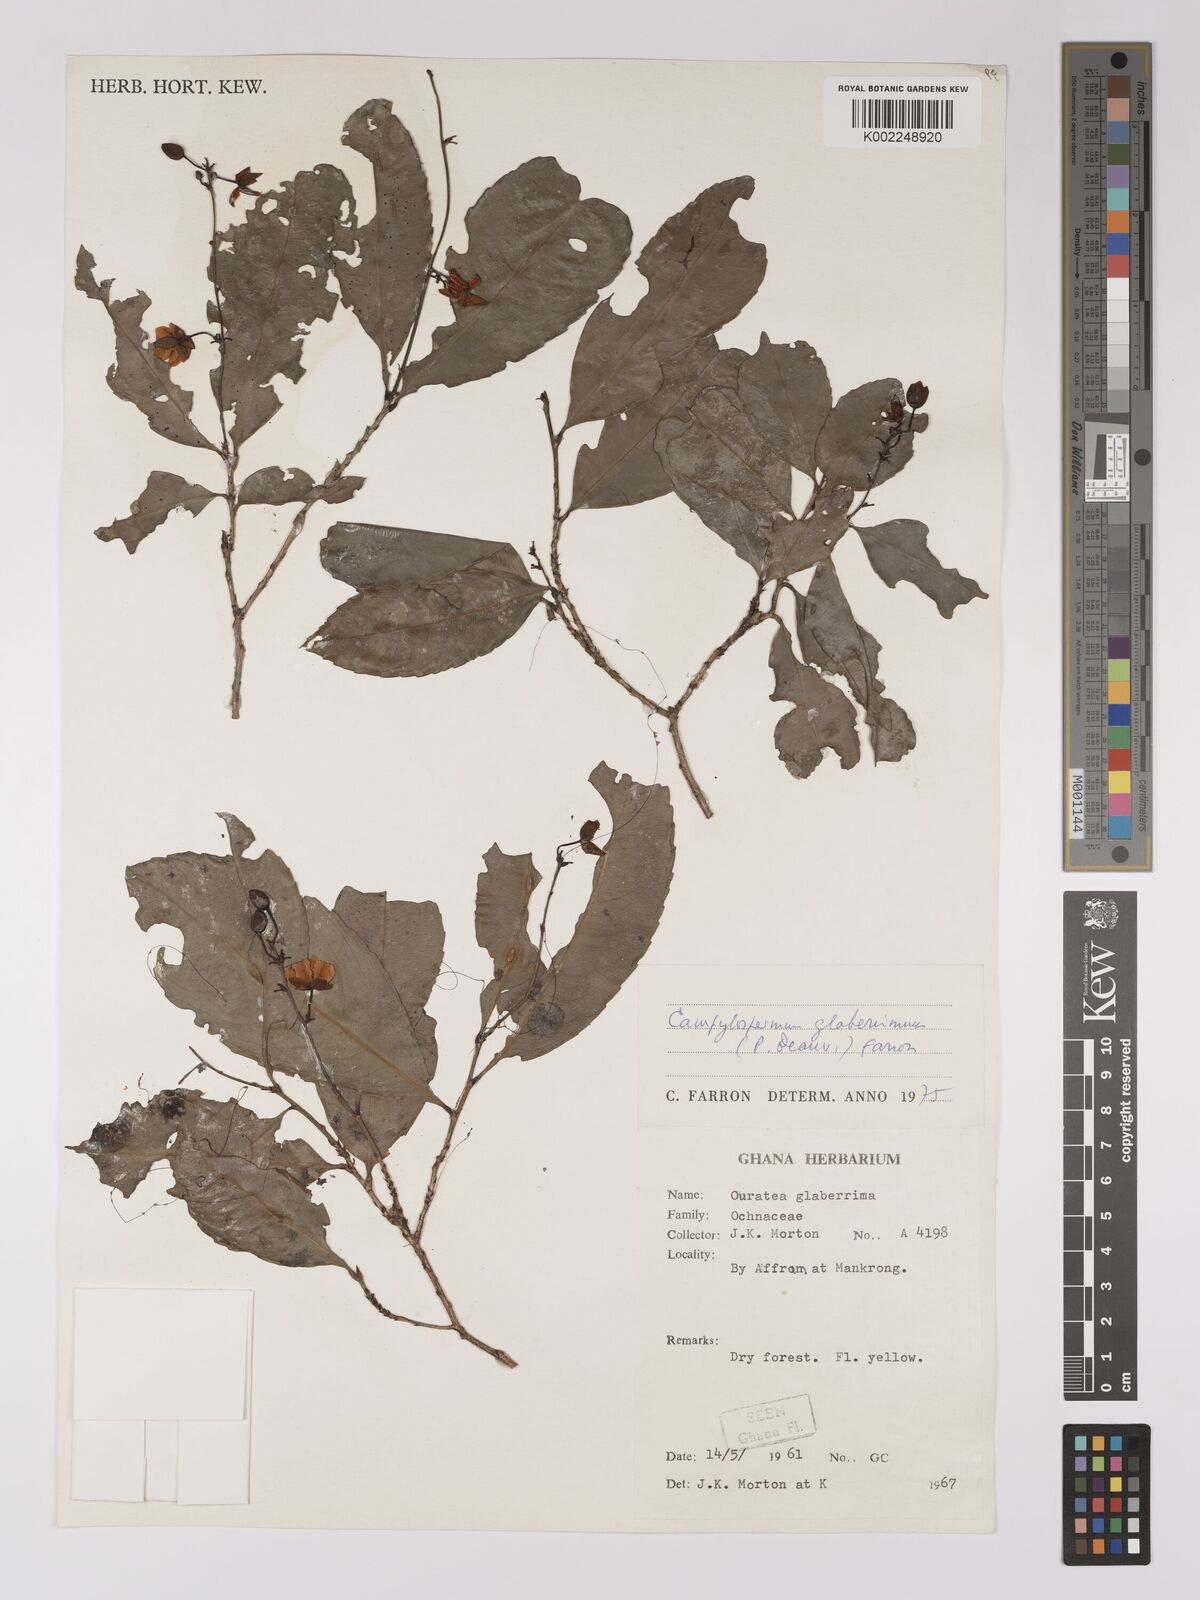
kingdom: Plantae
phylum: Tracheophyta
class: Magnoliopsida
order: Malpighiales
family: Ochnaceae
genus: Campylospermum
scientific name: Campylospermum glaberrimum
